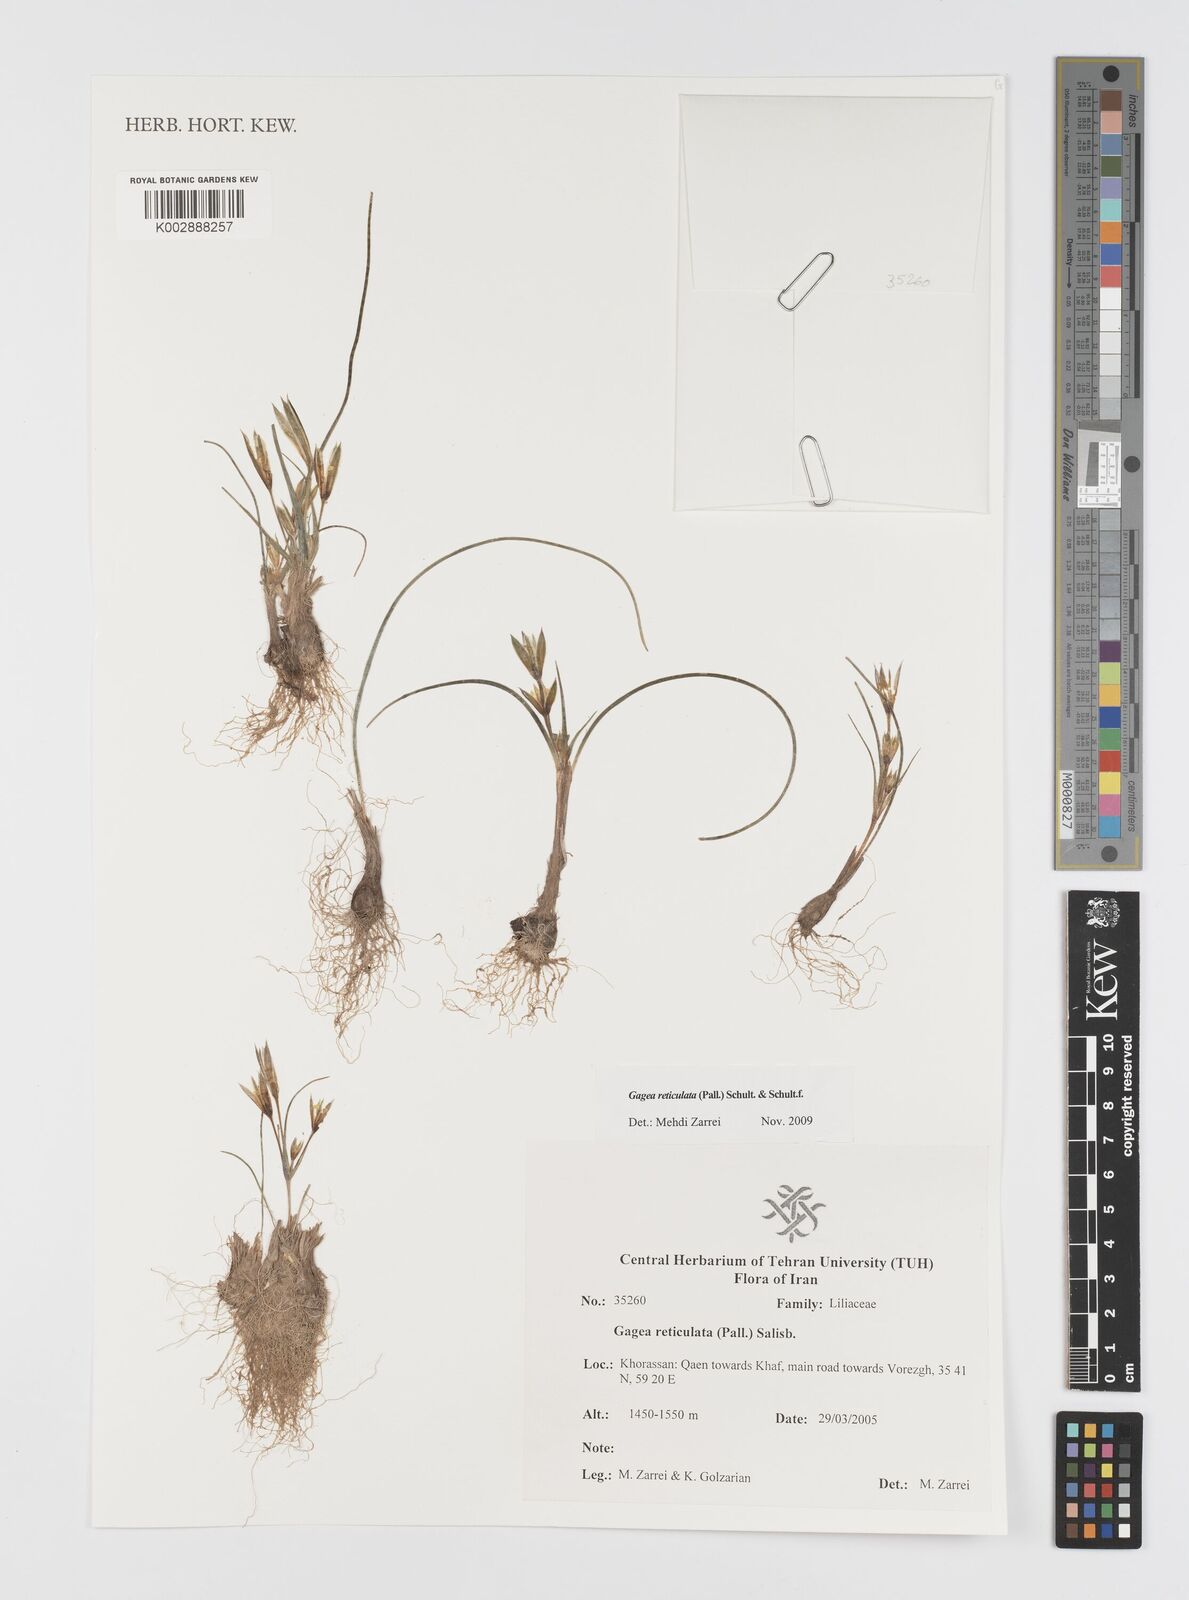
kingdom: Plantae
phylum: Tracheophyta
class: Liliopsida
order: Liliales
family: Liliaceae
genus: Gagea
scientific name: Gagea reticulata
